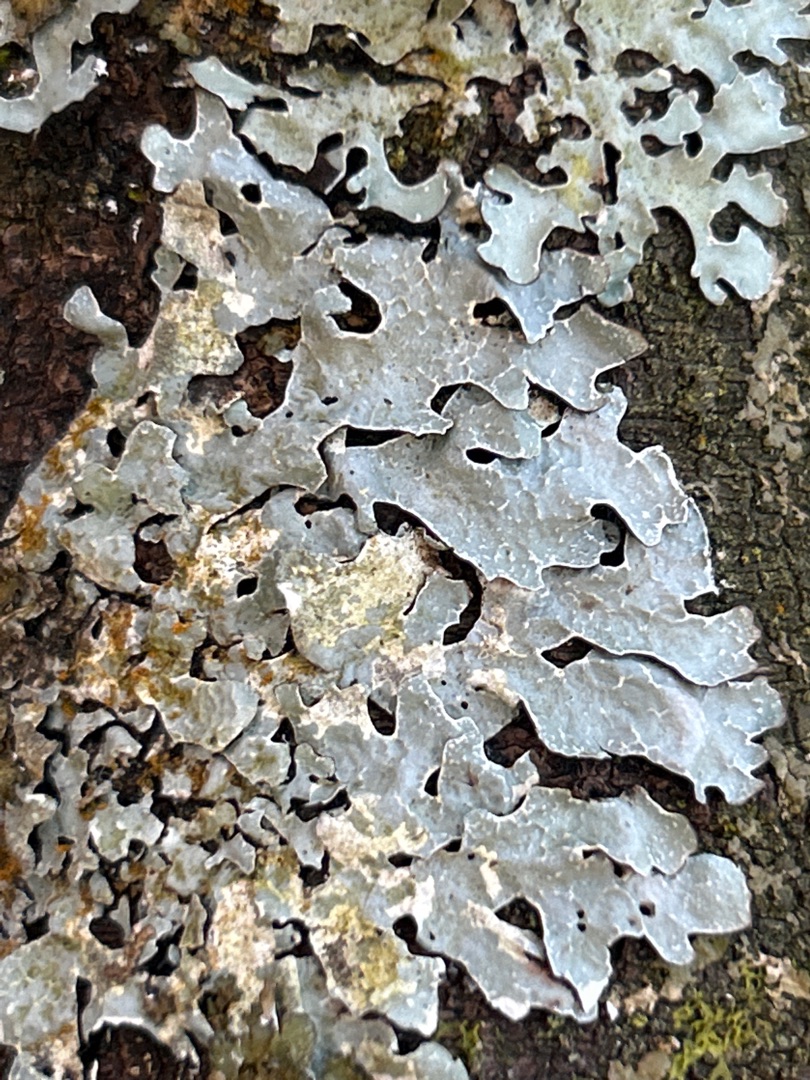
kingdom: Fungi
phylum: Ascomycota
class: Lecanoromycetes
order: Lecanorales
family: Parmeliaceae
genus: Parmelia
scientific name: Parmelia sulcata
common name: Rynket skållav
